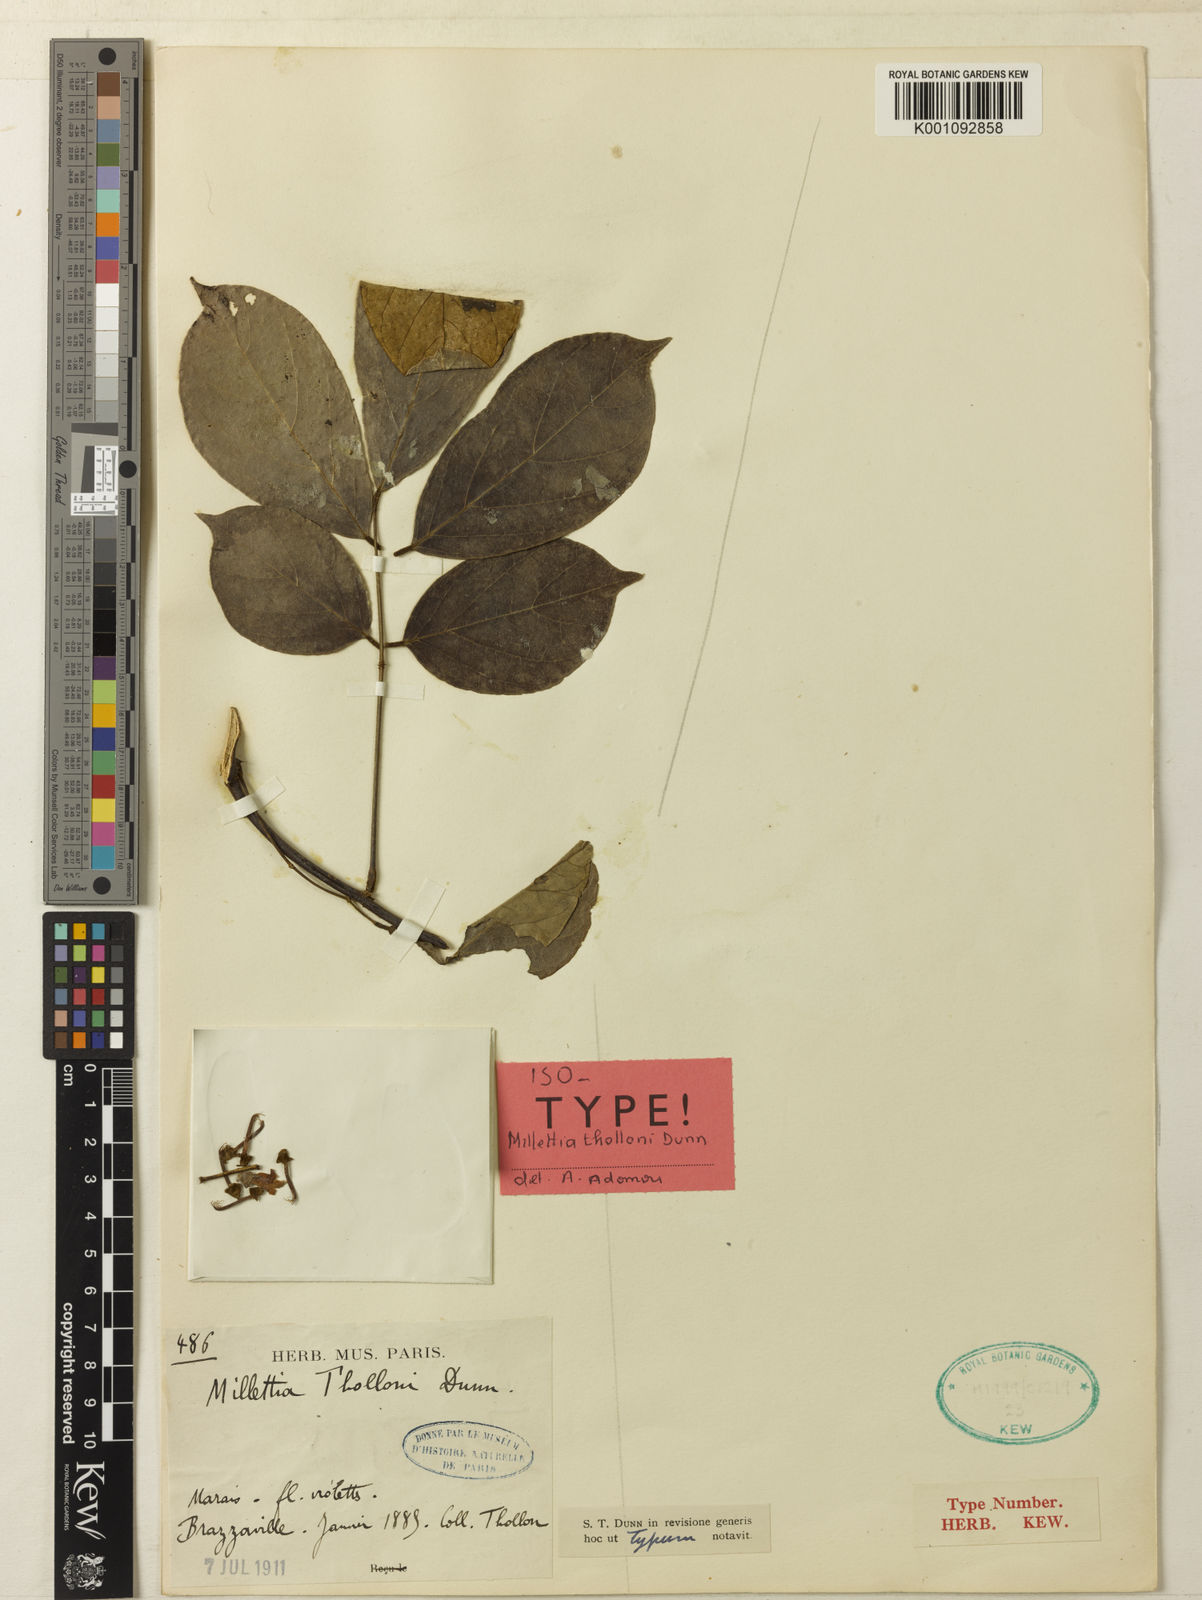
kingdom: Plantae
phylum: Tracheophyta
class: Magnoliopsida
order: Fabales
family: Fabaceae
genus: Millettia
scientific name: Millettia thollonii
